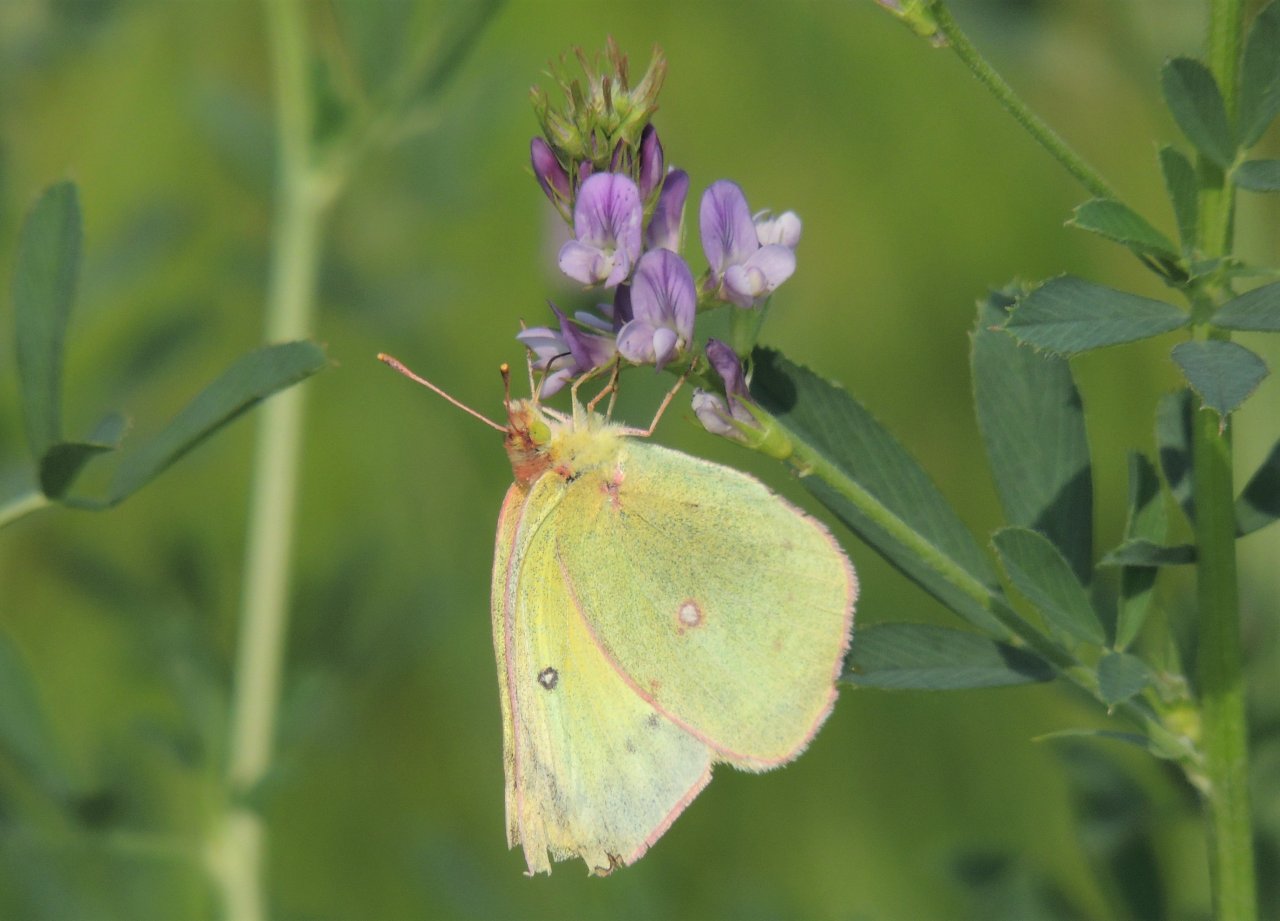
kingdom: Animalia
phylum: Arthropoda
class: Insecta
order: Lepidoptera
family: Pieridae
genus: Colias
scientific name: Colias eurytheme
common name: Orange Sulphur
